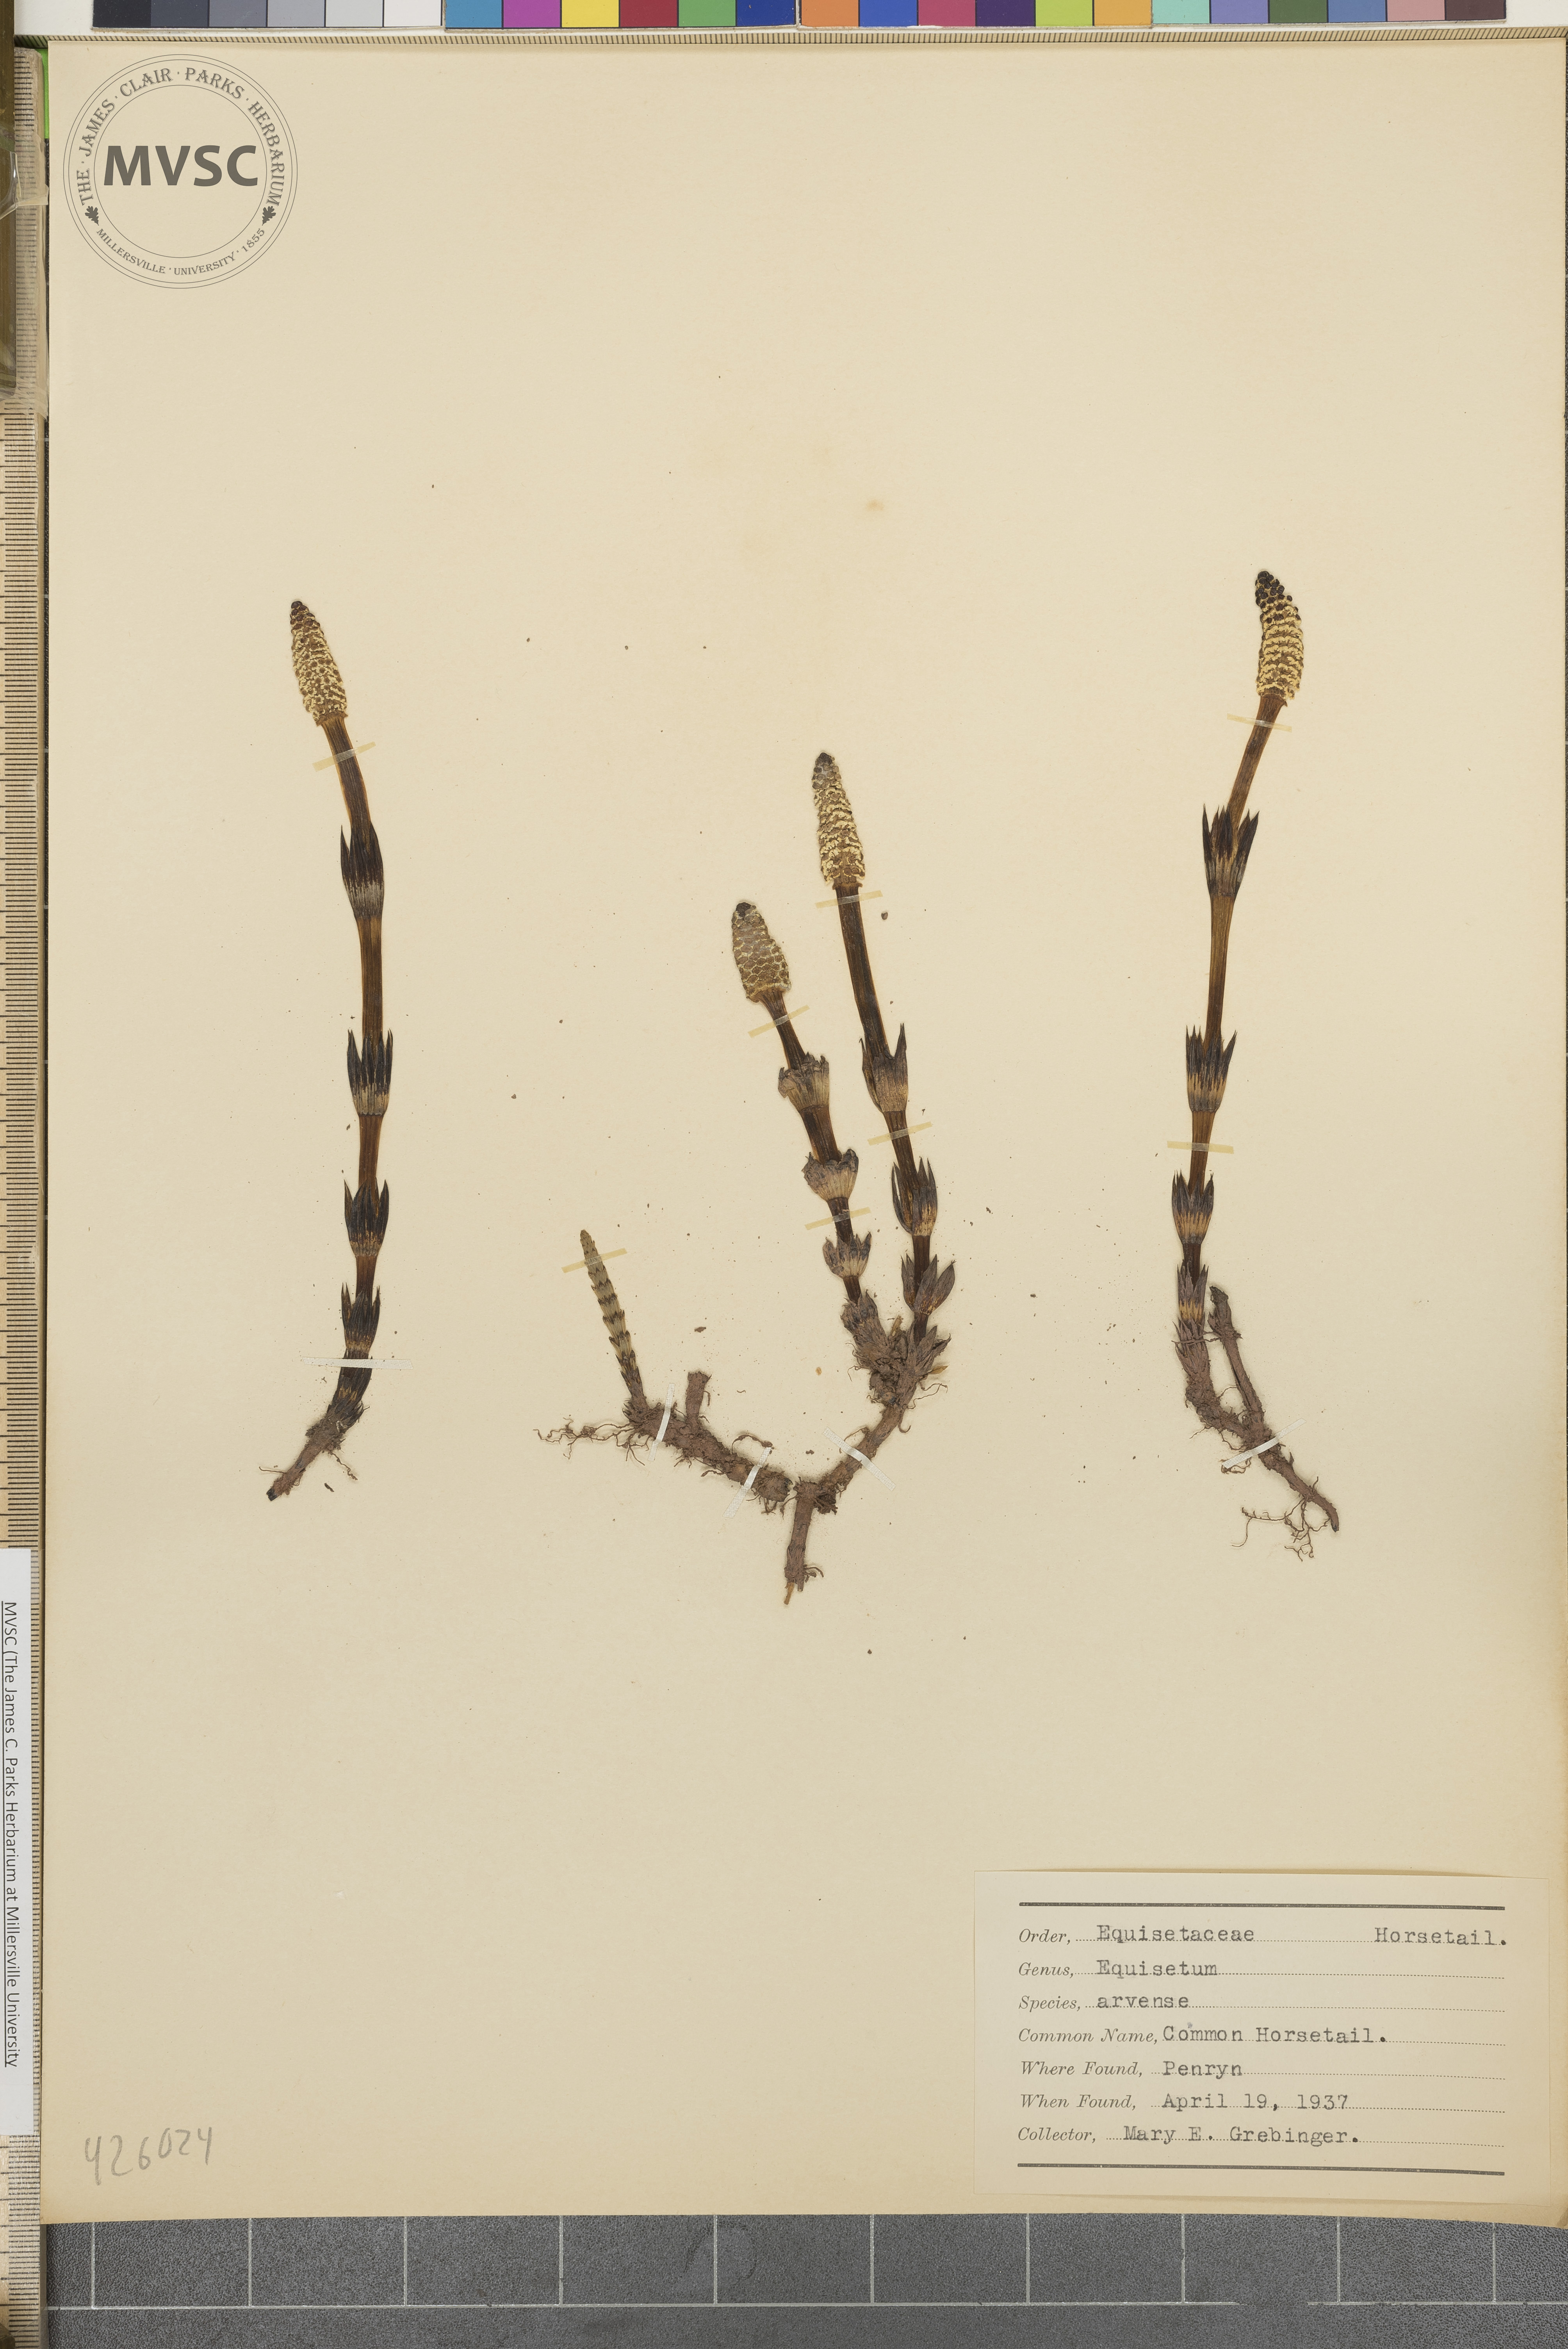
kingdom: Plantae
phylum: Tracheophyta
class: Polypodiopsida
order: Equisetales
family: Equisetaceae
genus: Equisetum
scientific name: Equisetum arvense
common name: Common Horsetail
